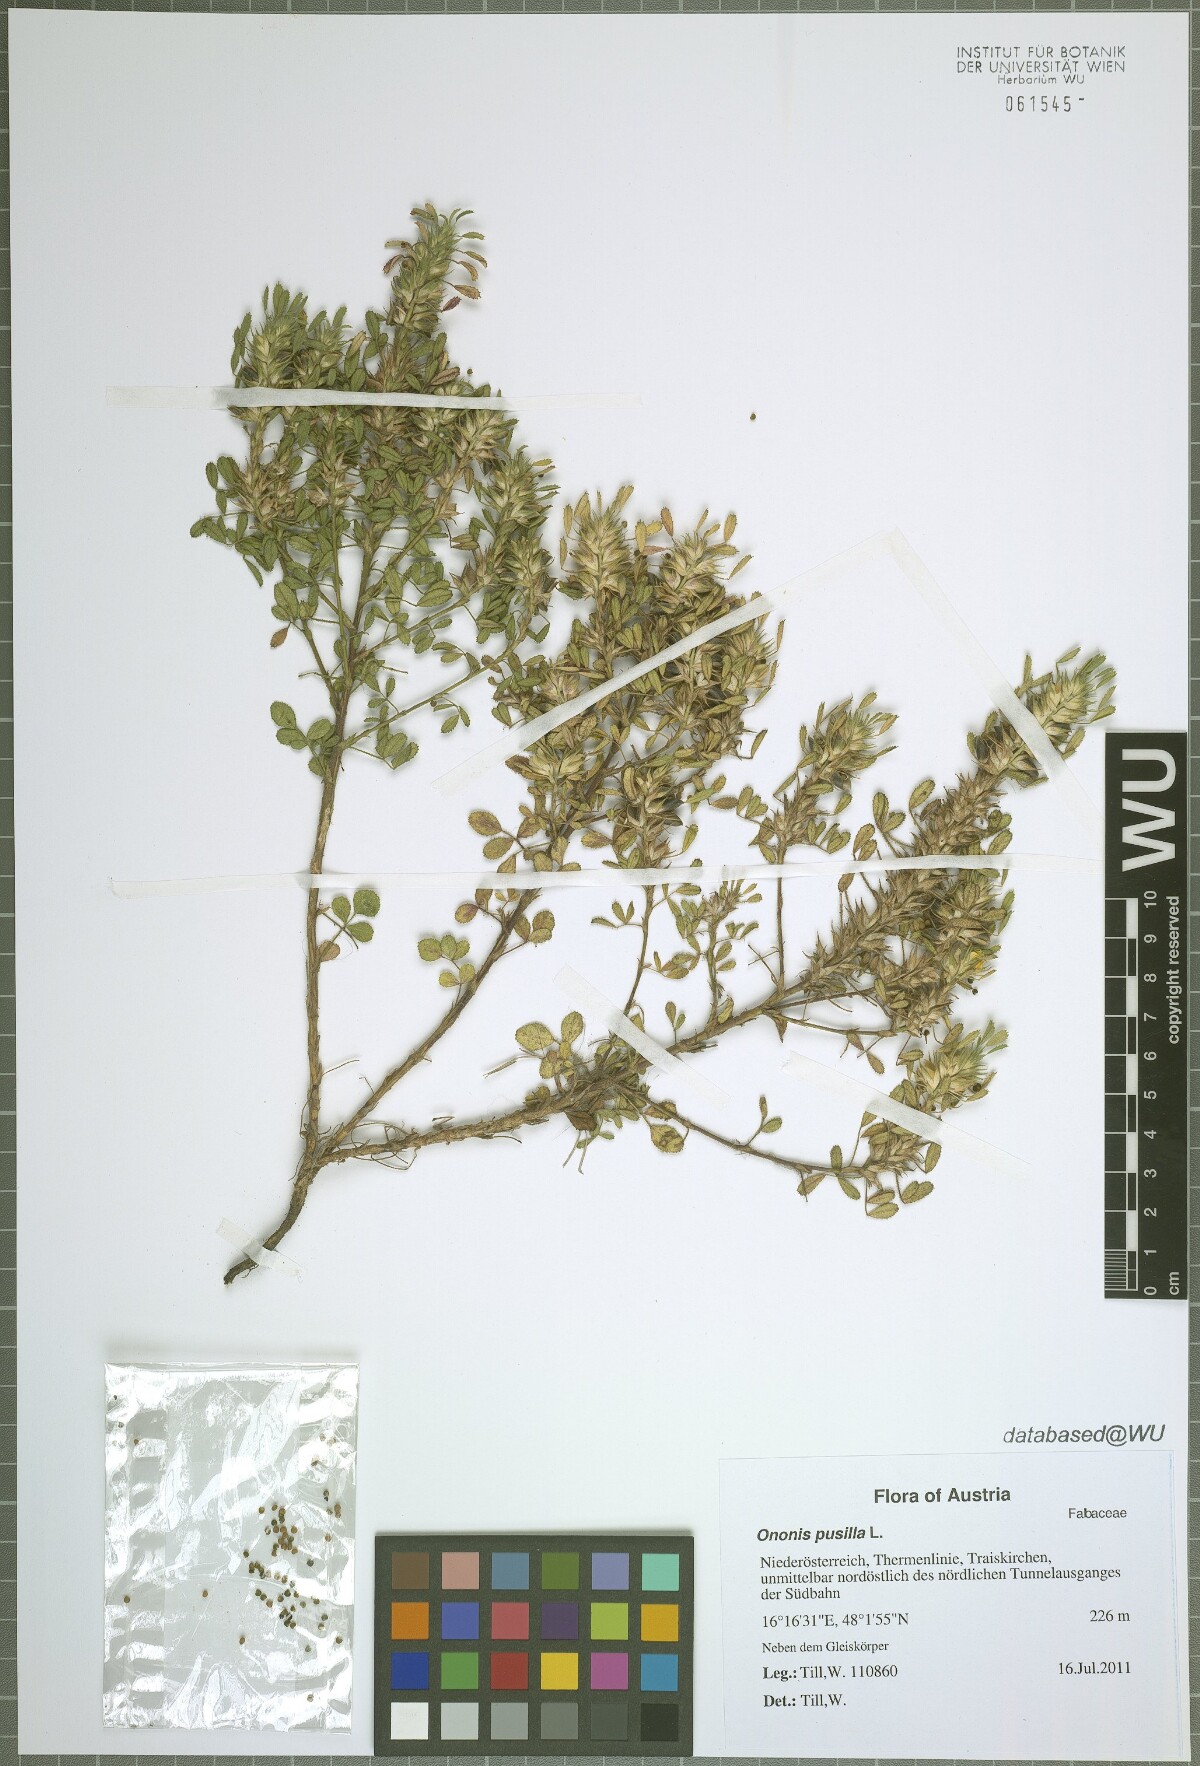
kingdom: Plantae
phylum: Tracheophyta
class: Magnoliopsida
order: Fabales
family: Fabaceae
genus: Ononis
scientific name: Ononis pusilla
